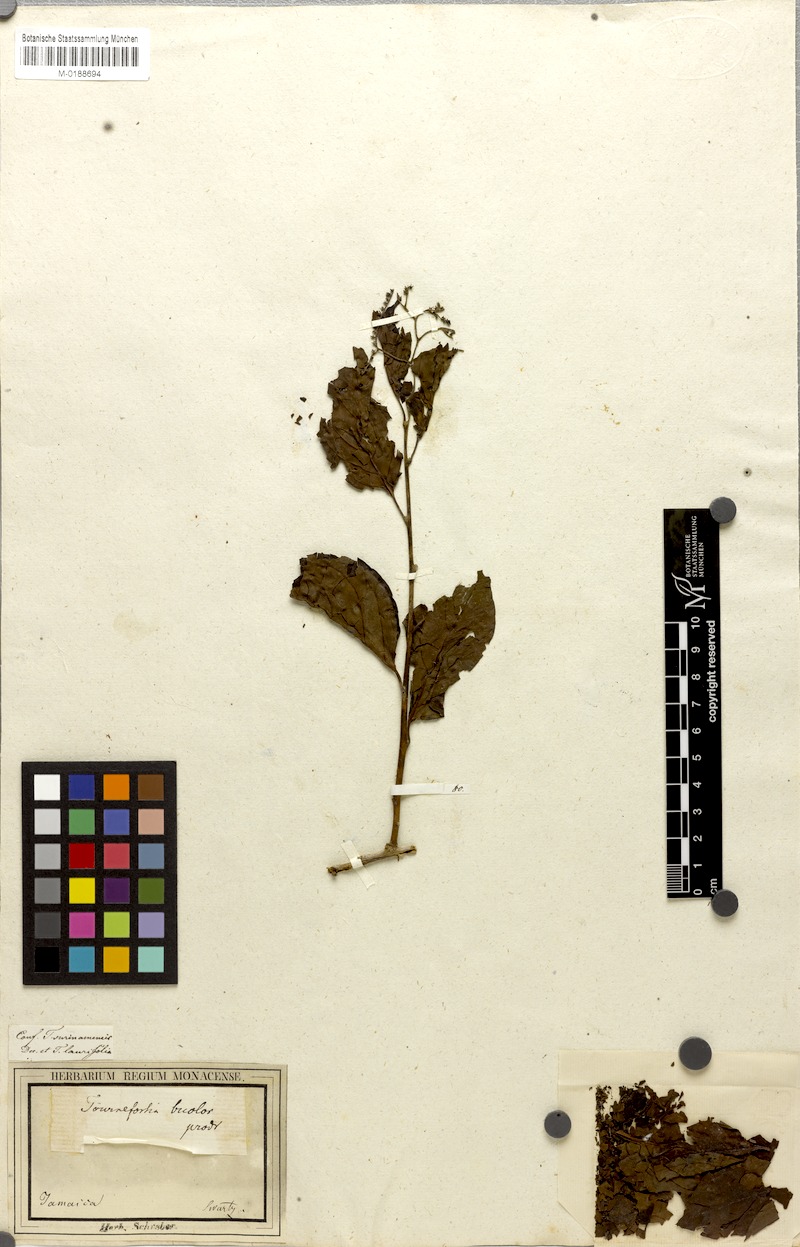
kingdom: Plantae
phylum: Tracheophyta
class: Magnoliopsida
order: Boraginales
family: Heliotropiaceae
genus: Heliotropium
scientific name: Heliotropium verdcourtii
